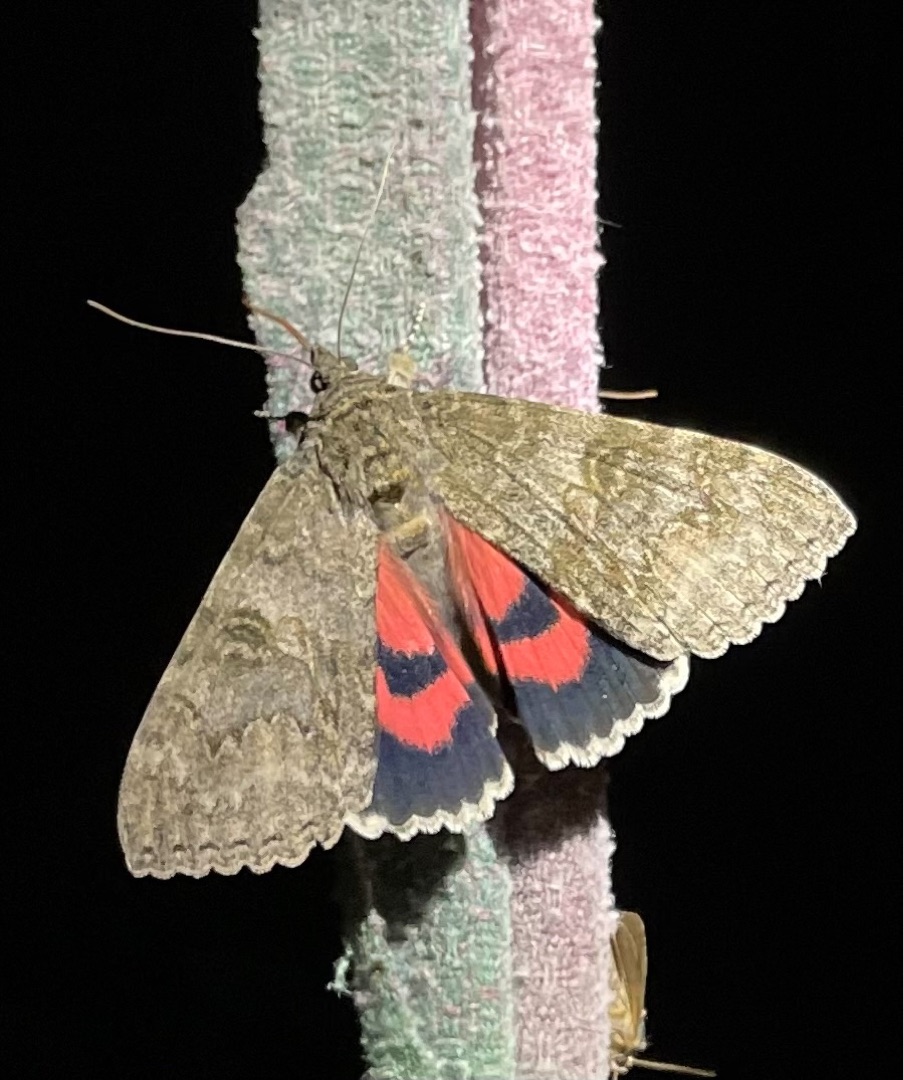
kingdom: Animalia
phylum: Arthropoda
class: Insecta
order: Lepidoptera
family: Erebidae
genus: Catocala
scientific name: Catocala nupta
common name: Rødt ordensbånd
